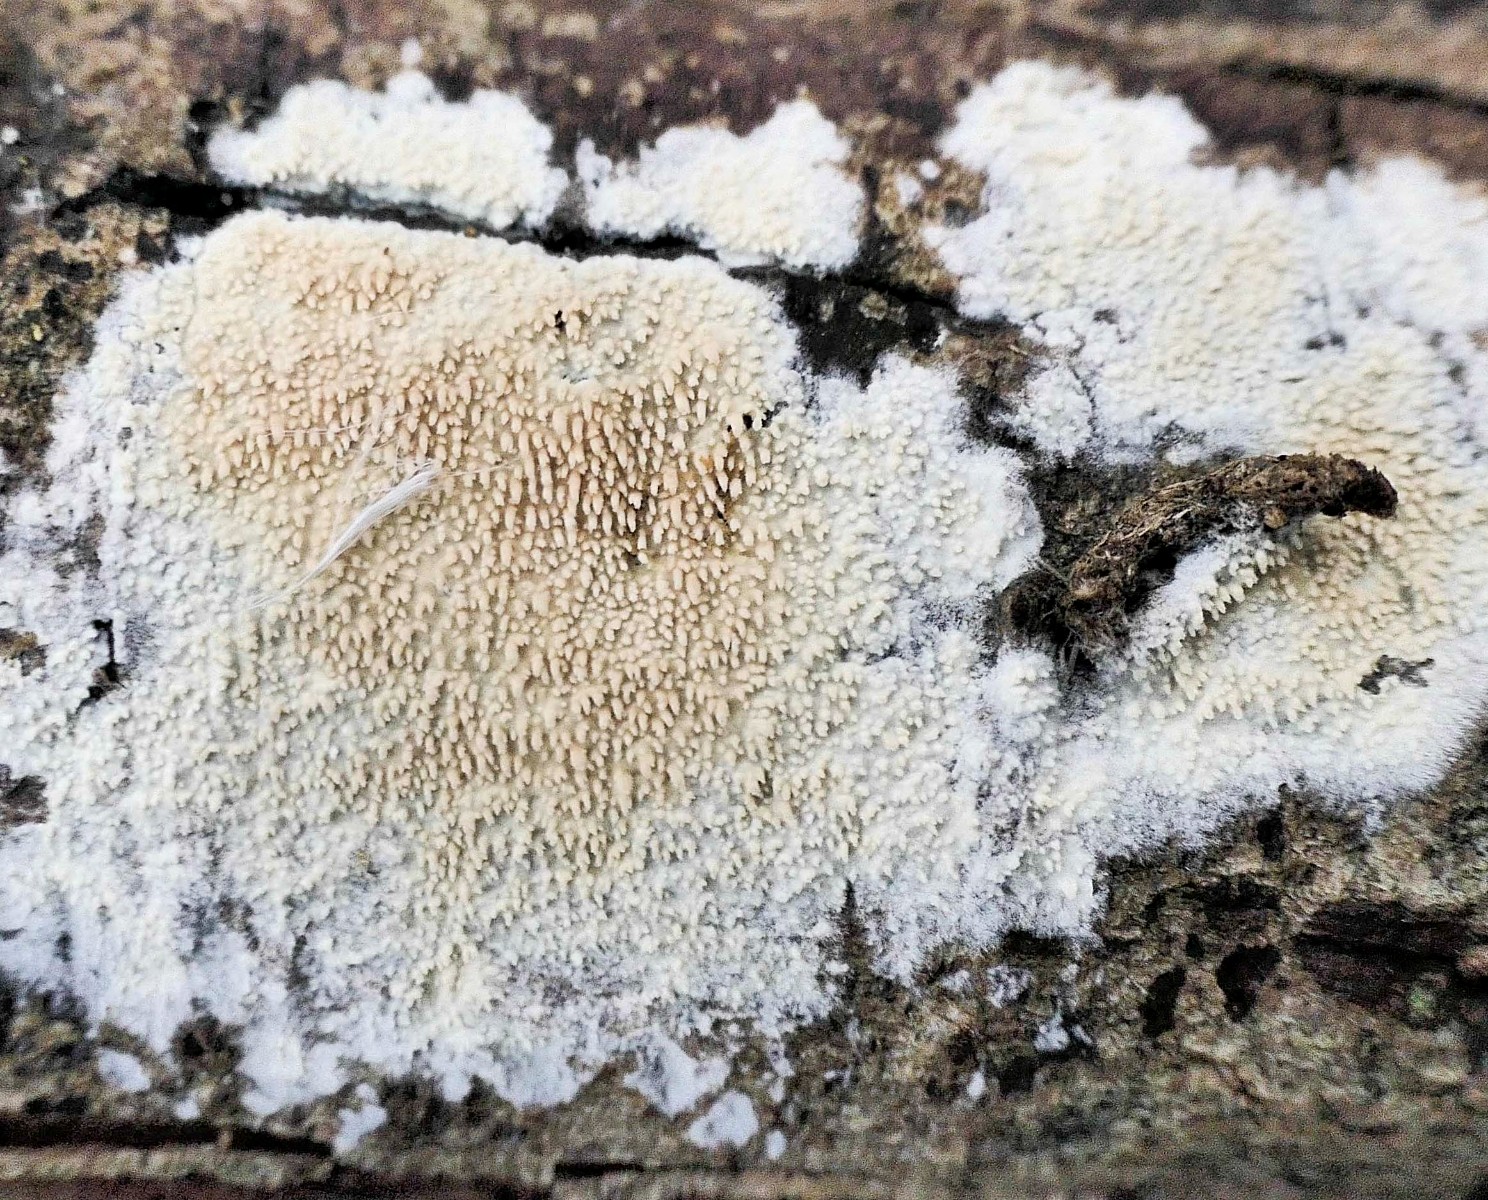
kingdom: Fungi
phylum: Basidiomycota
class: Agaricomycetes
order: Hymenochaetales
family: Hyphodontiaceae
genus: Hyphodontia
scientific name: Hyphodontia arguta
